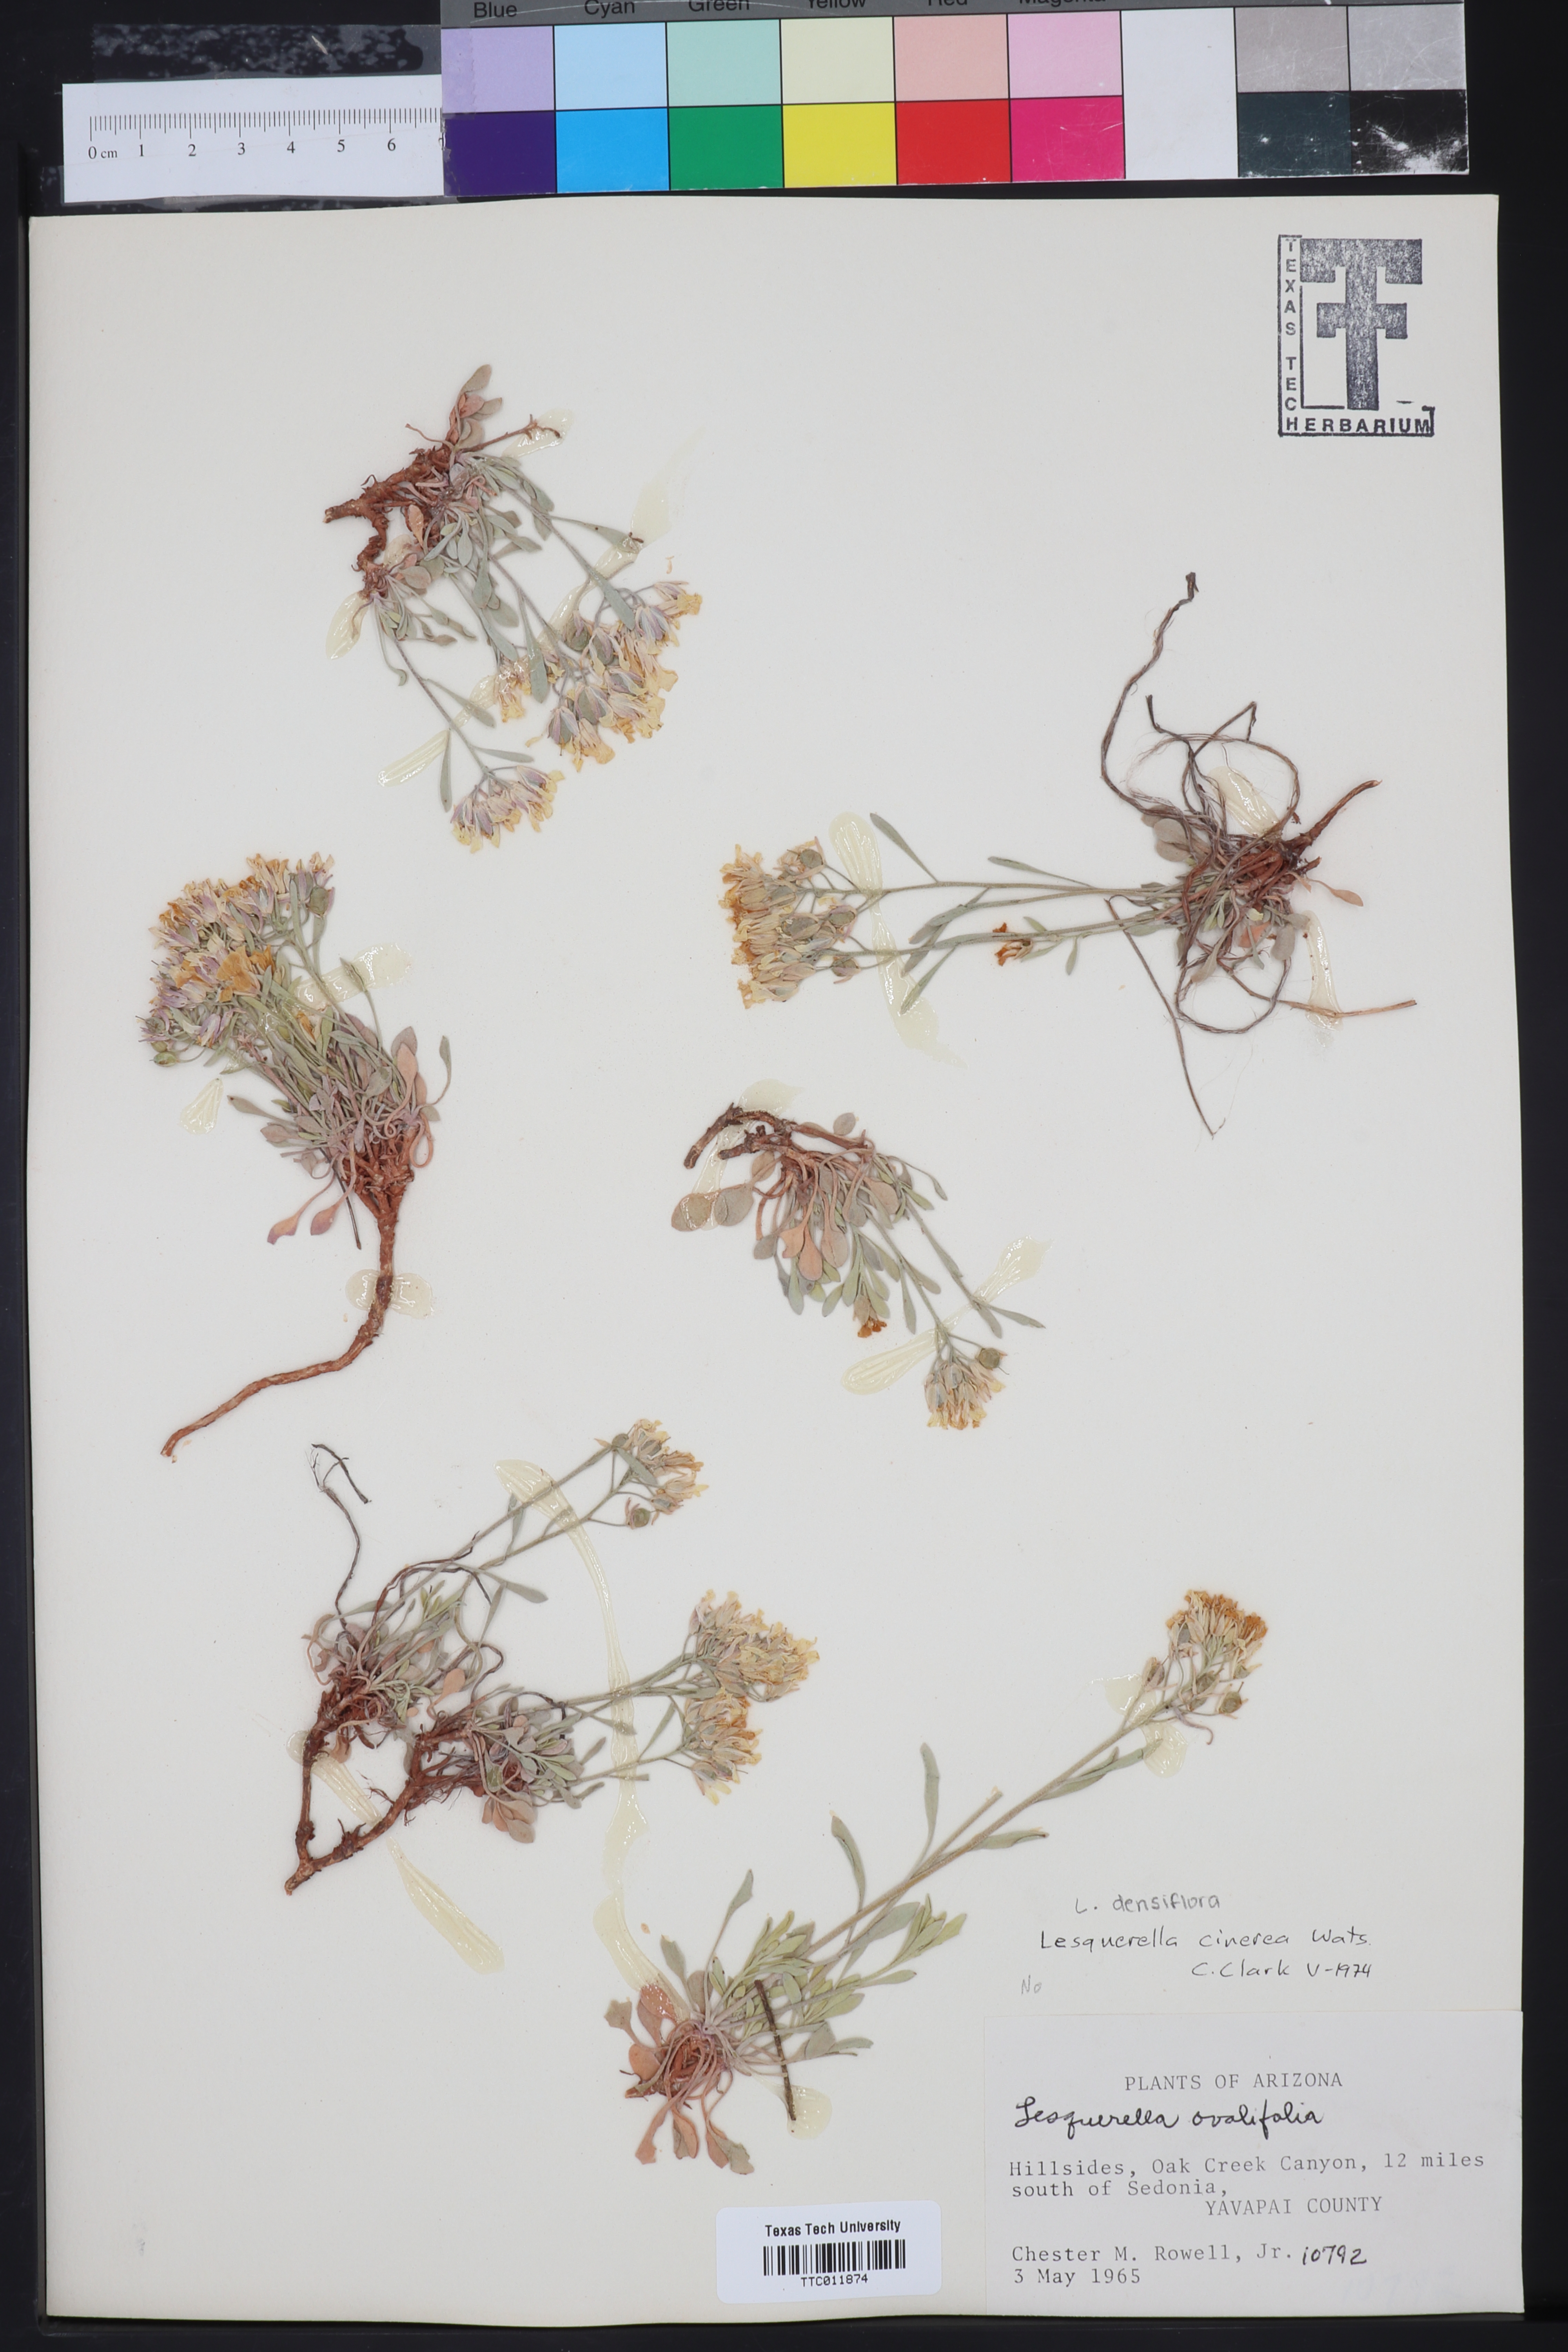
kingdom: Plantae
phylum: Tracheophyta
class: Magnoliopsida
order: Brassicales
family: Brassicaceae
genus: Physaria
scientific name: Physaria cinerea
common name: Basin bladderpod
